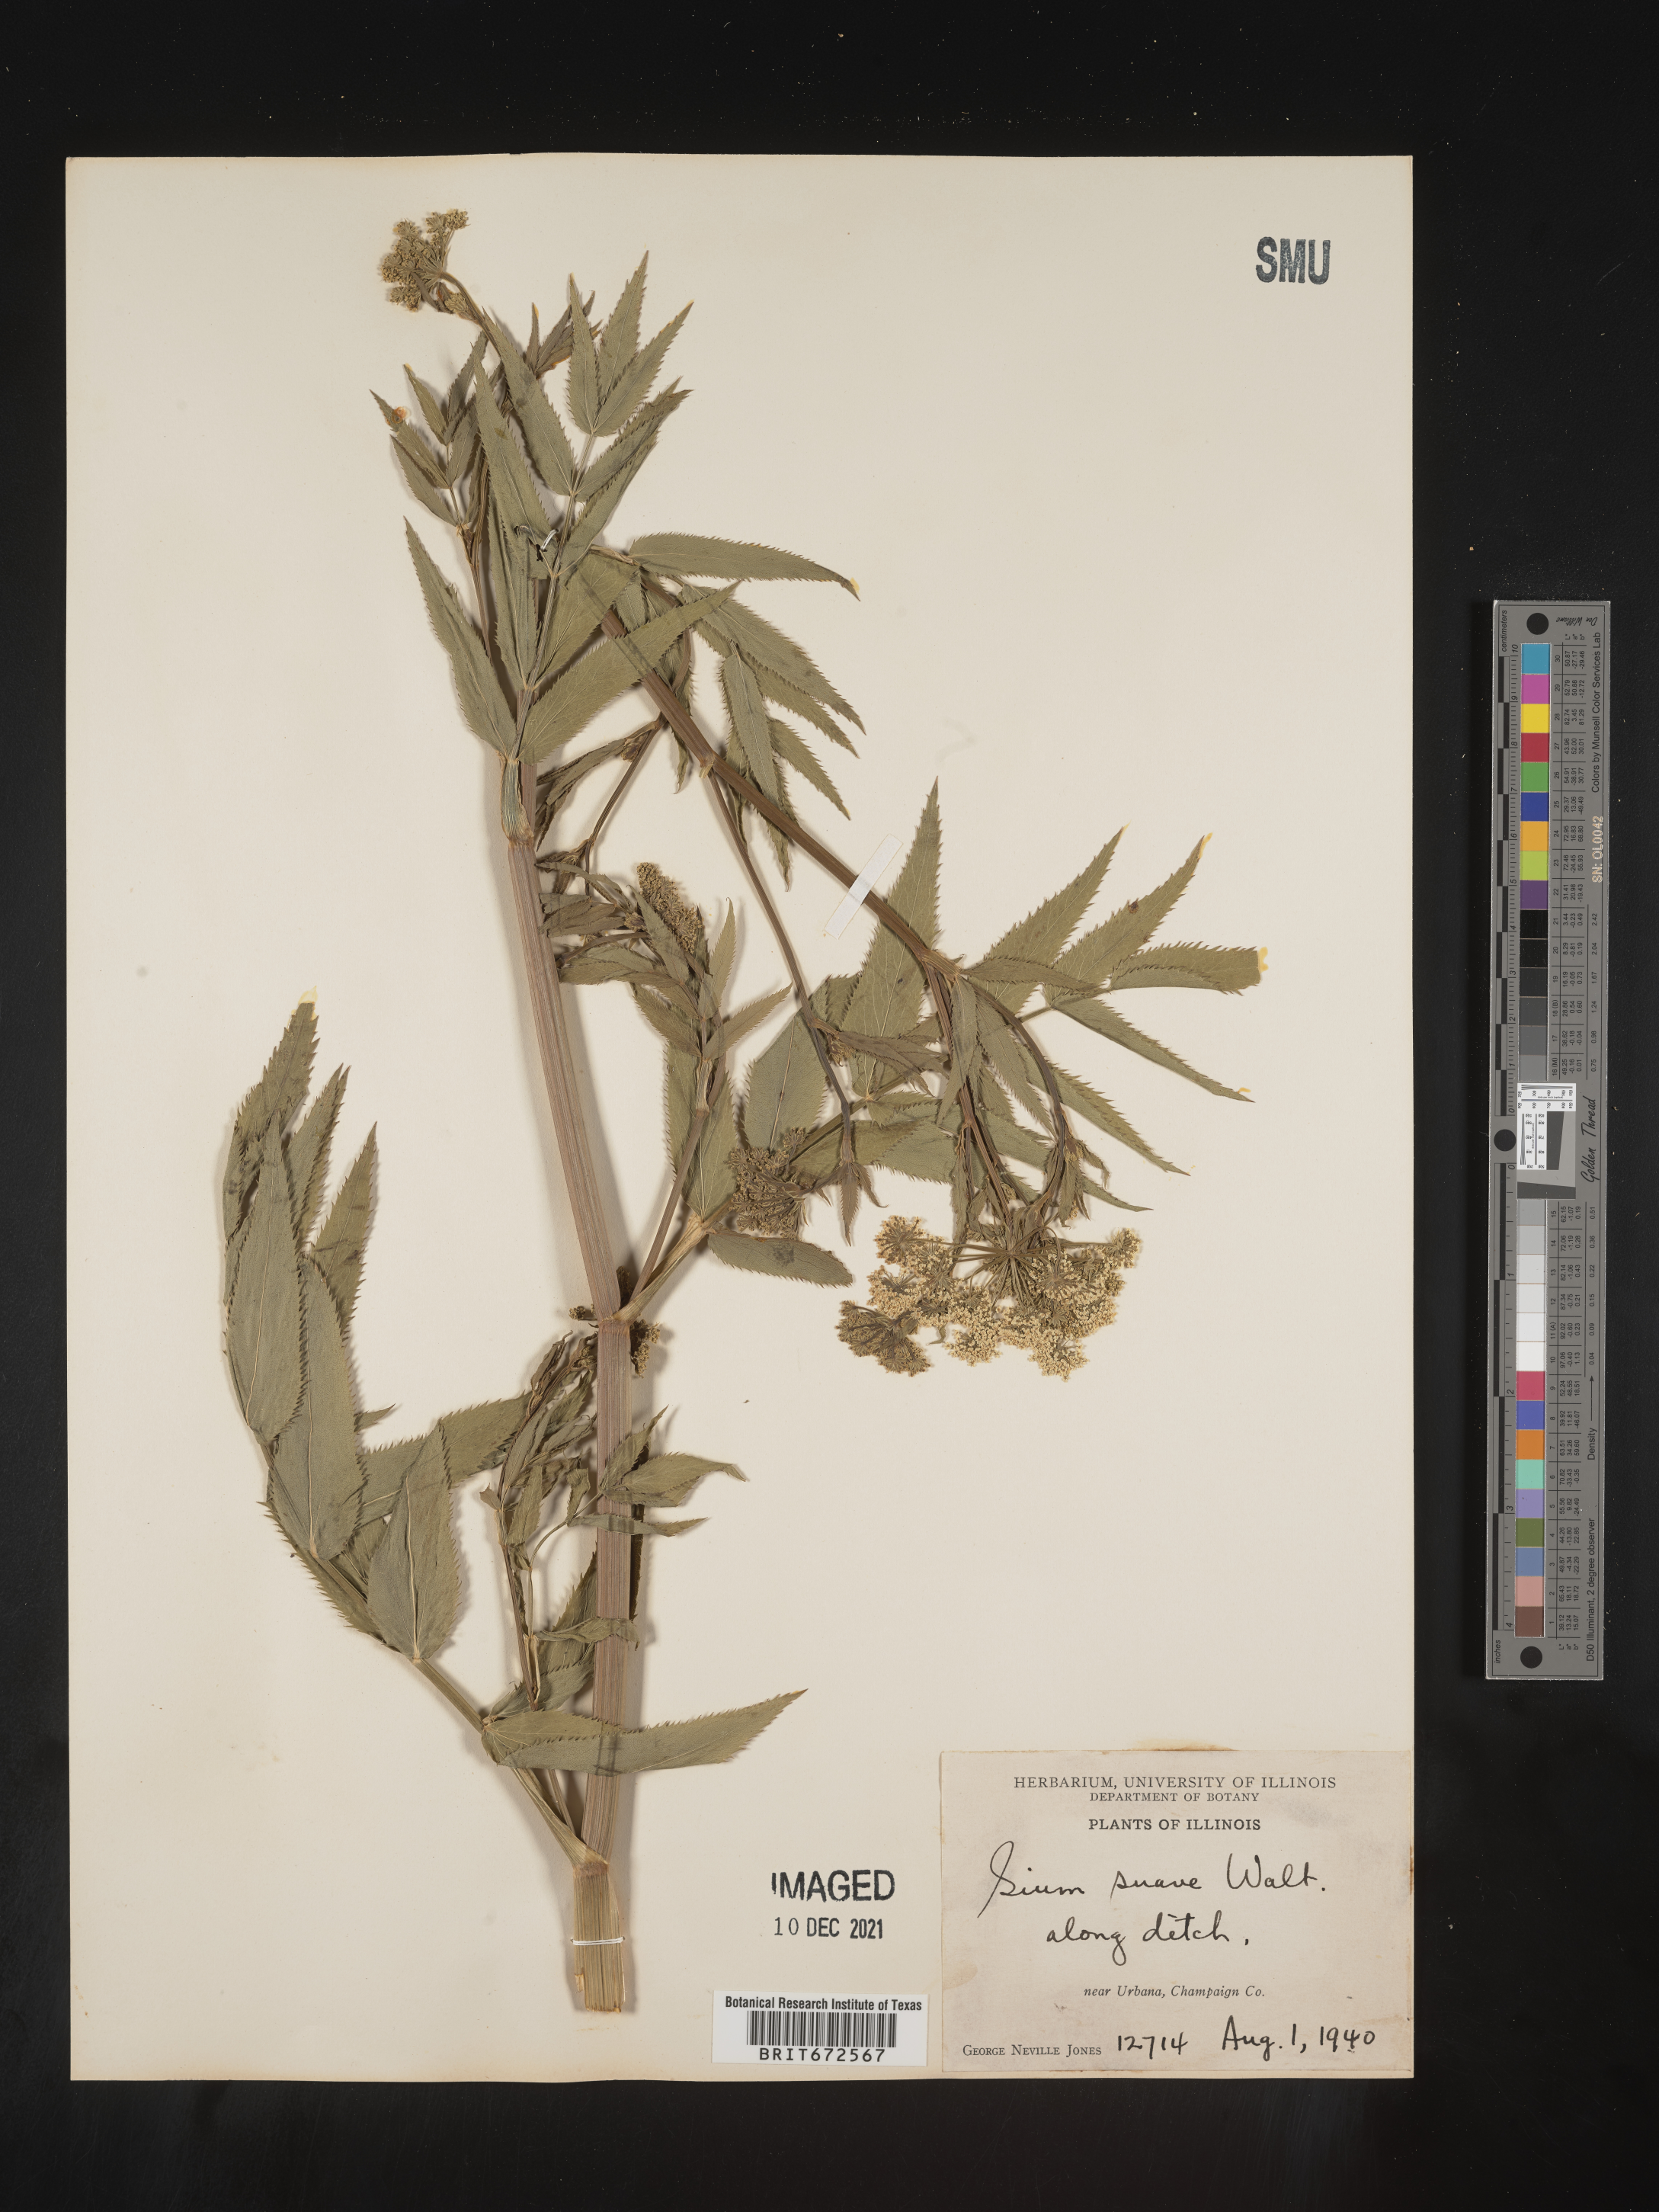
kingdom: Plantae
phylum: Tracheophyta
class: Magnoliopsida
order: Apiales
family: Apiaceae
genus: Sium
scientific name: Sium suave
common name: Hemlock water-parsnip
